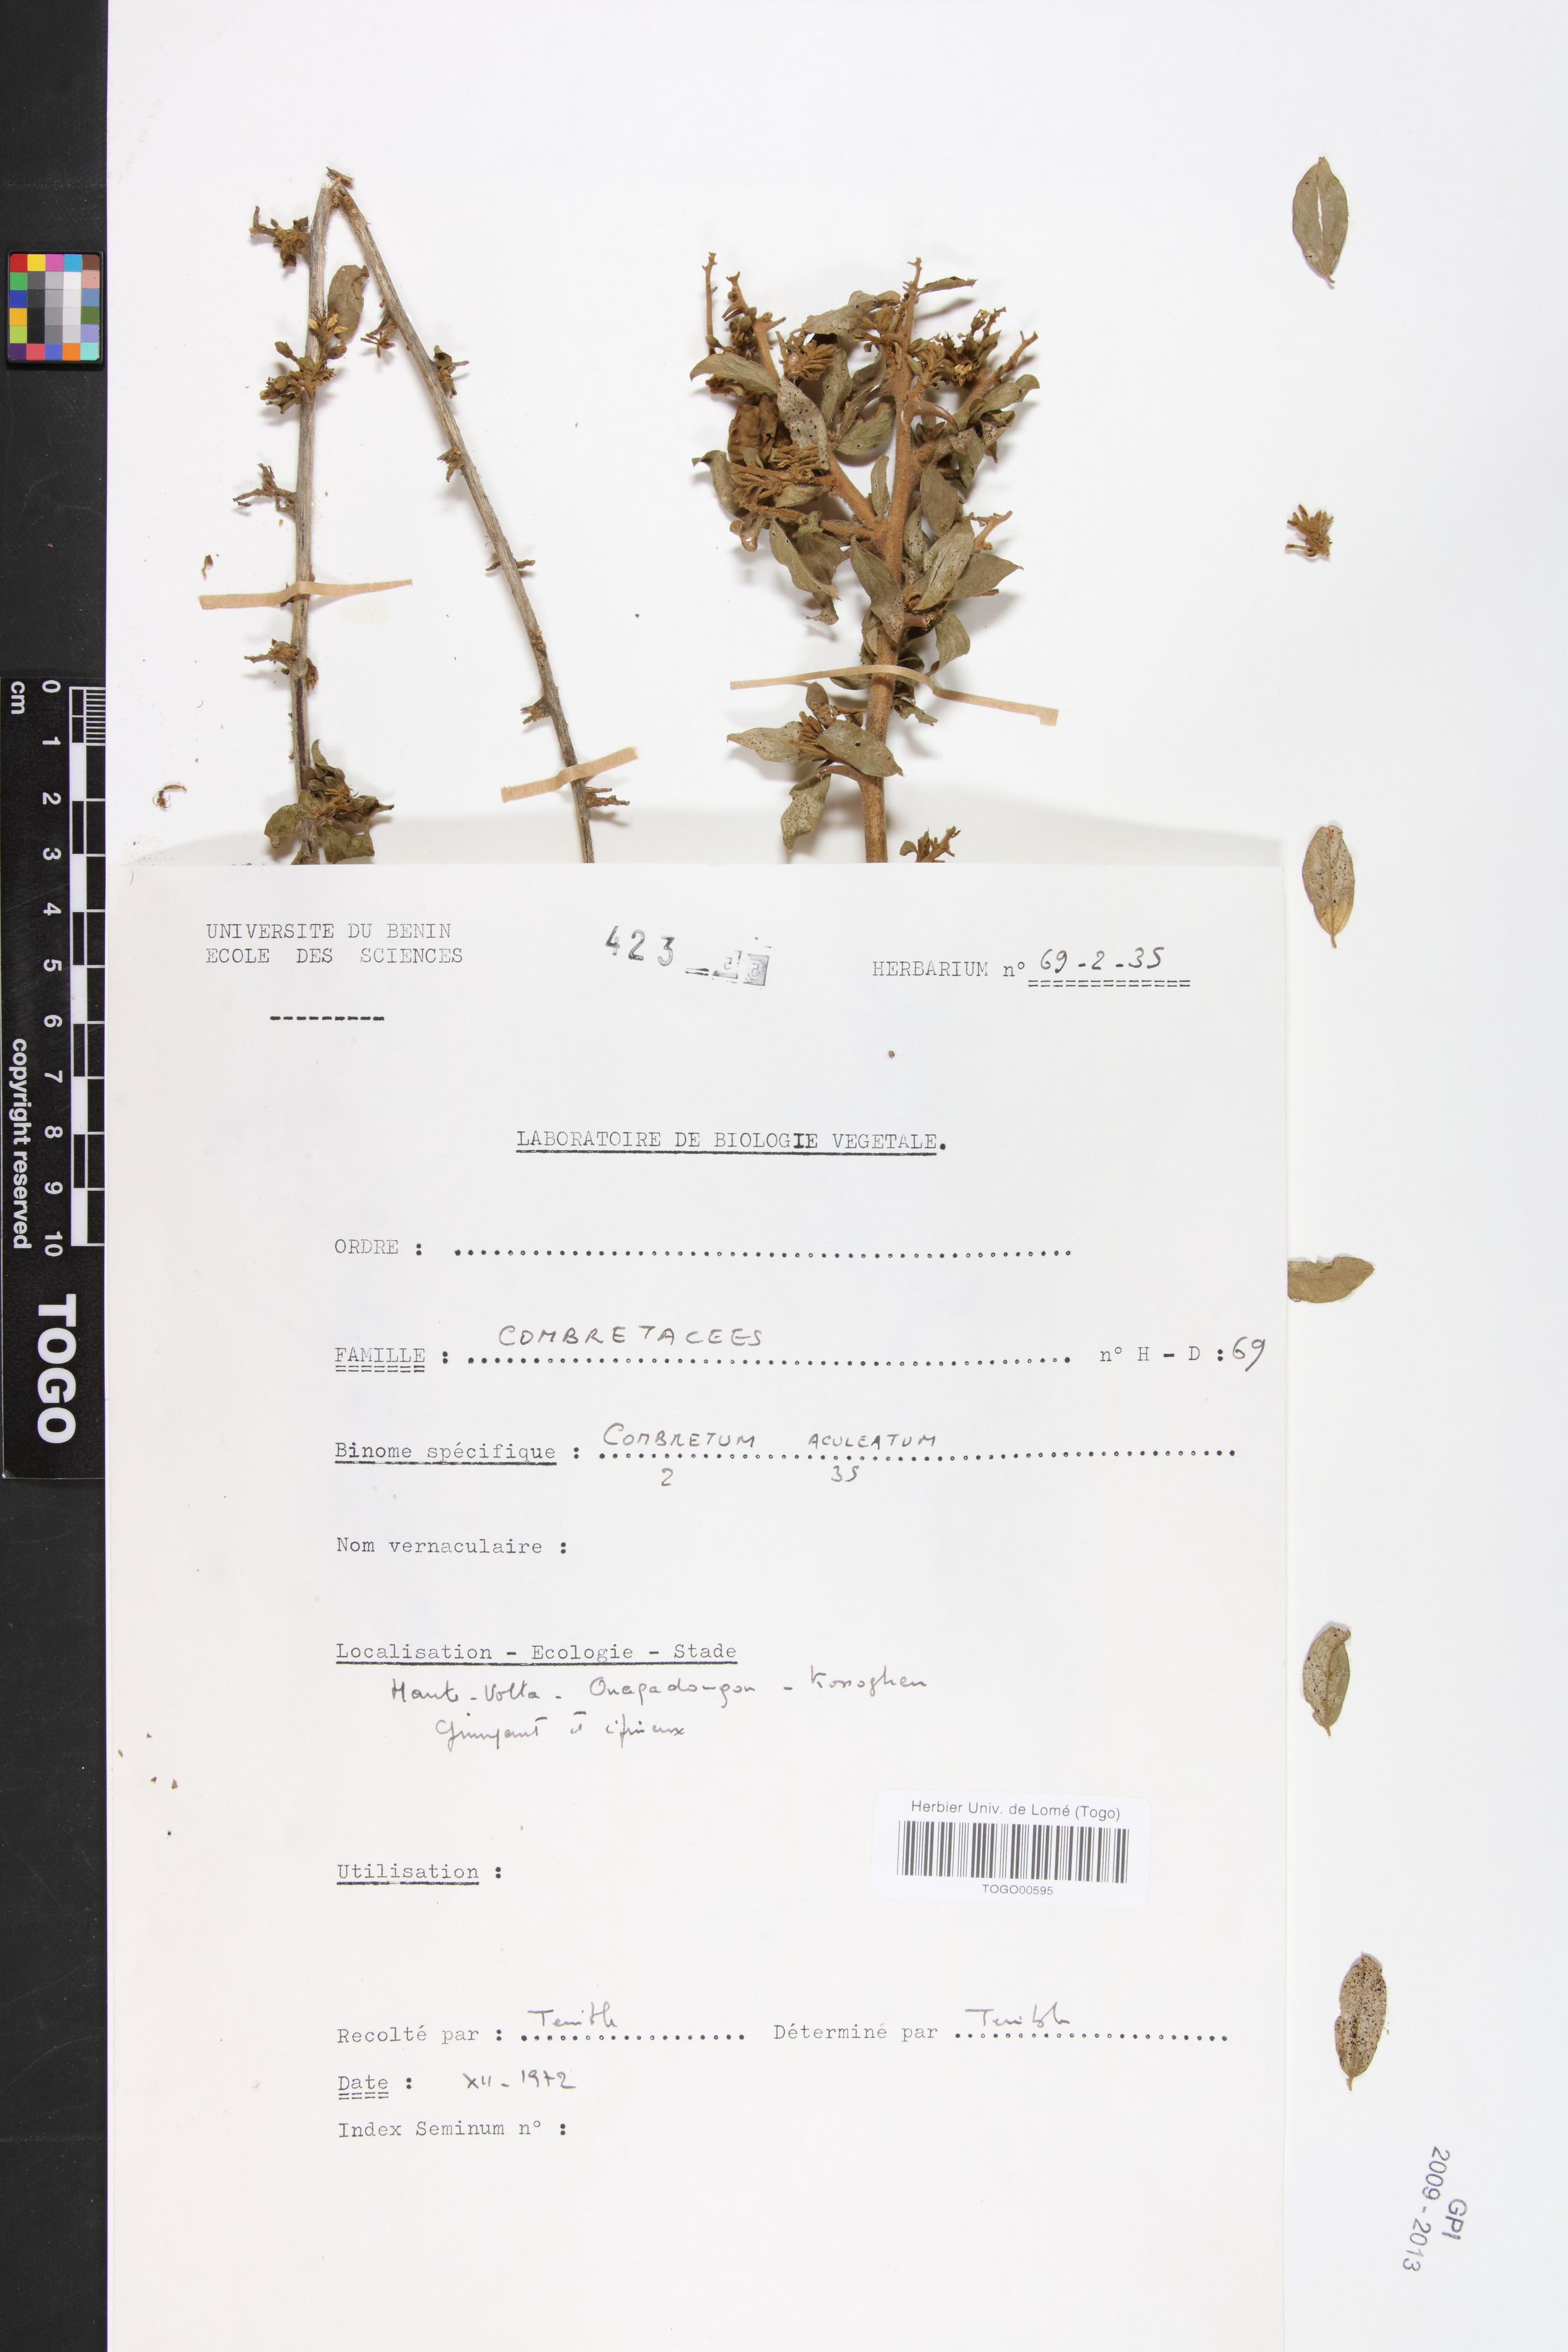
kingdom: Plantae
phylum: Tracheophyta
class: Magnoliopsida
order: Myrtales
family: Combretaceae
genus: Combretum
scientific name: Combretum aculeatum
